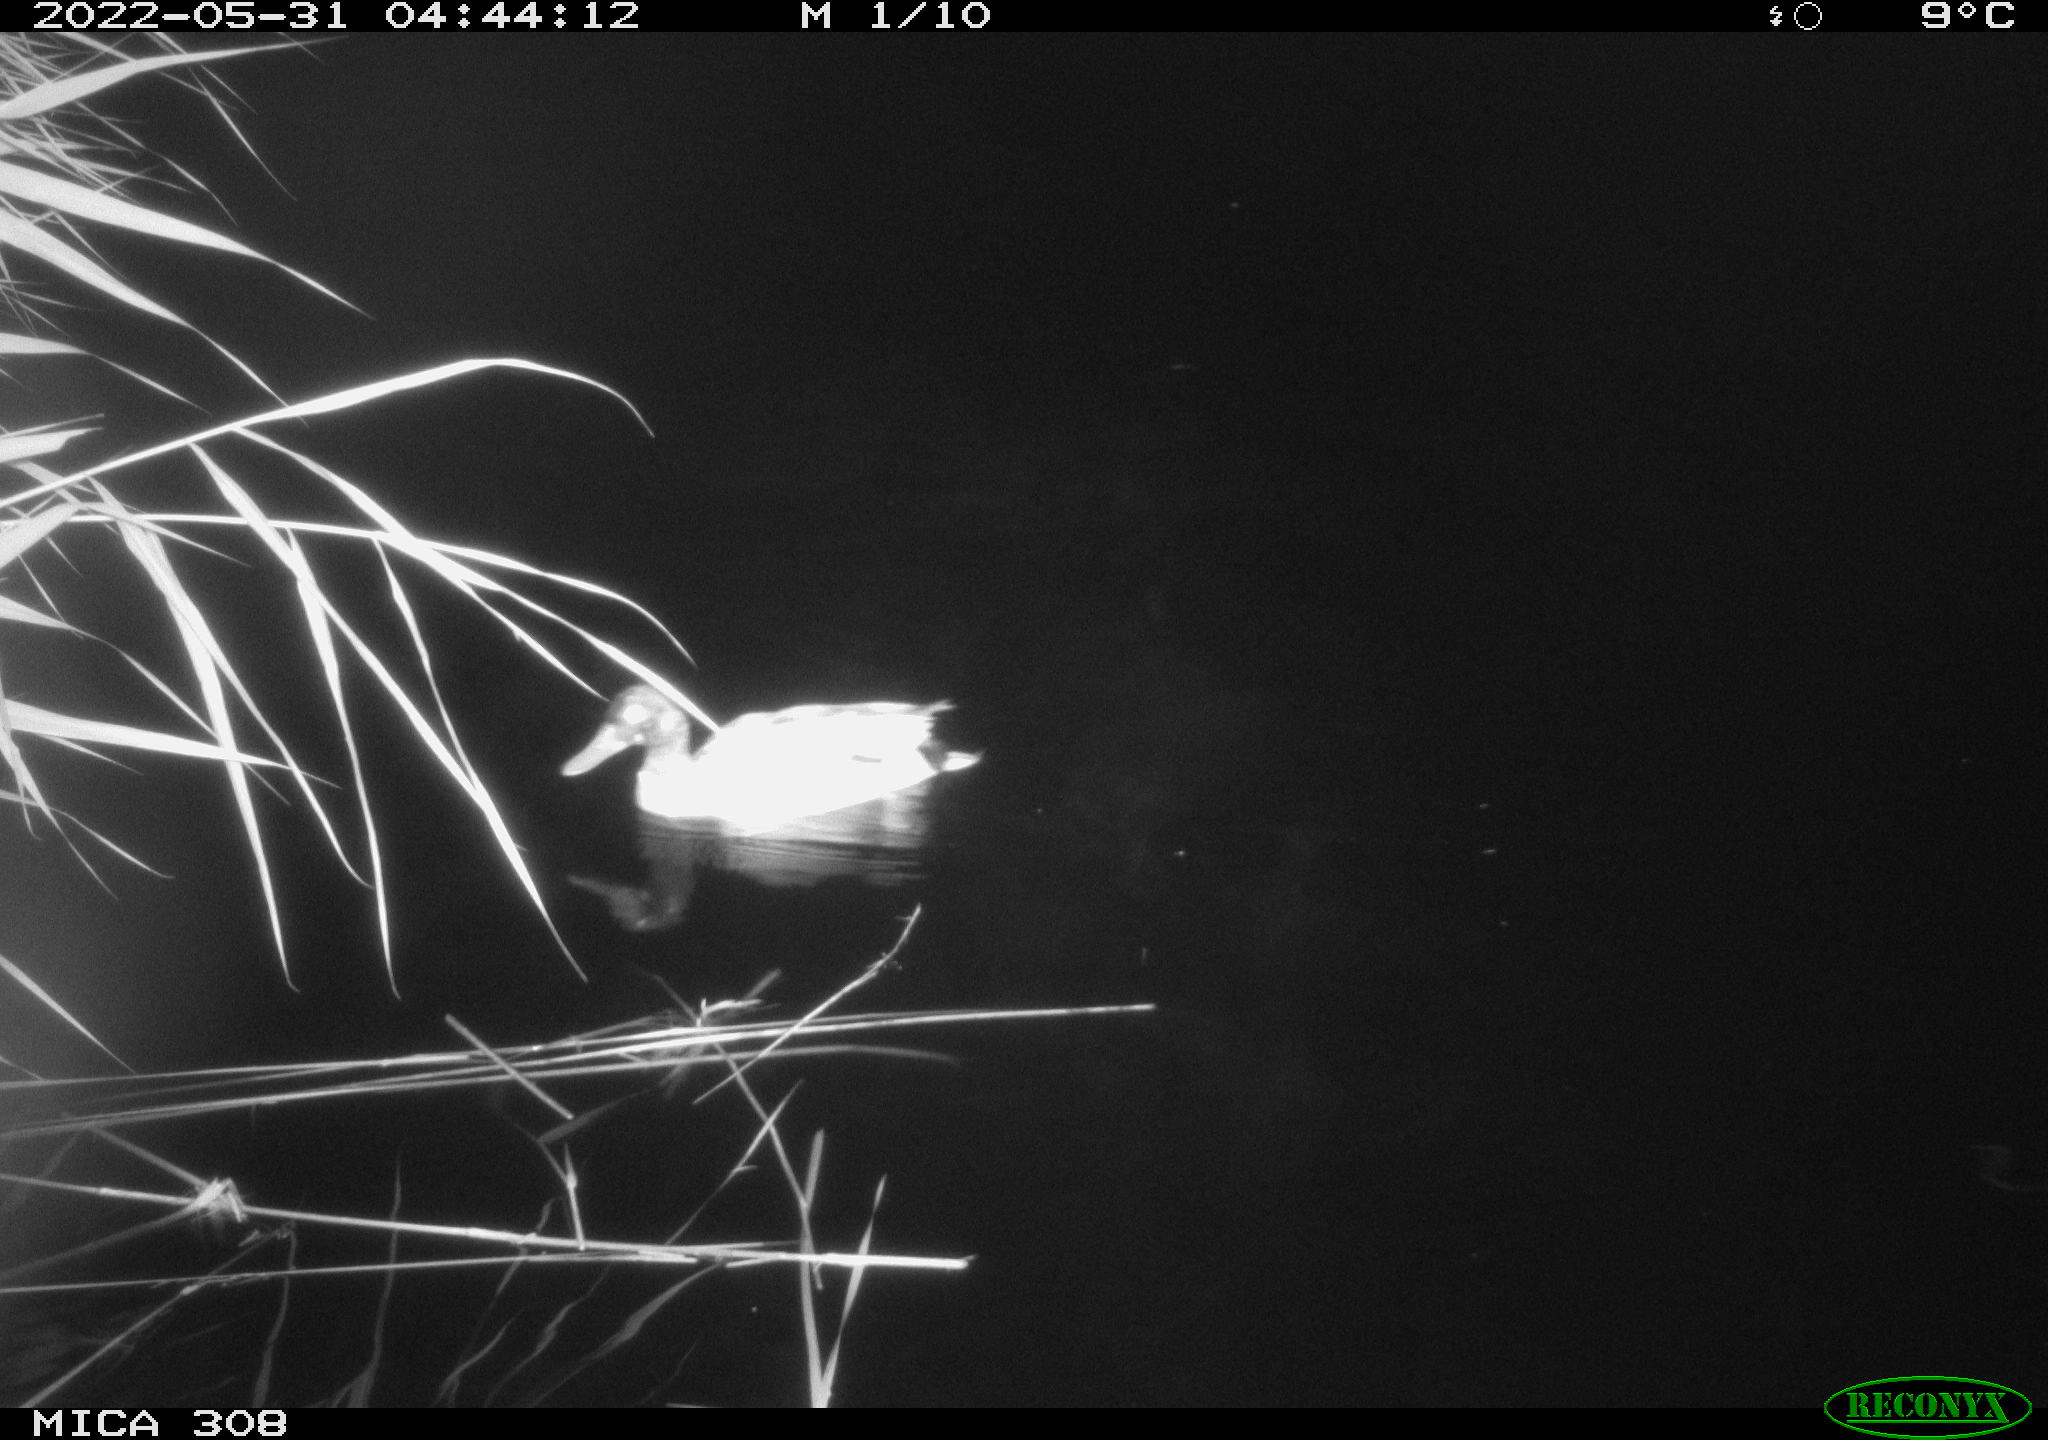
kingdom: Animalia
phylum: Chordata
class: Aves
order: Anseriformes
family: Anatidae
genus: Anas
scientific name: Anas platyrhynchos
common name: Mallard
